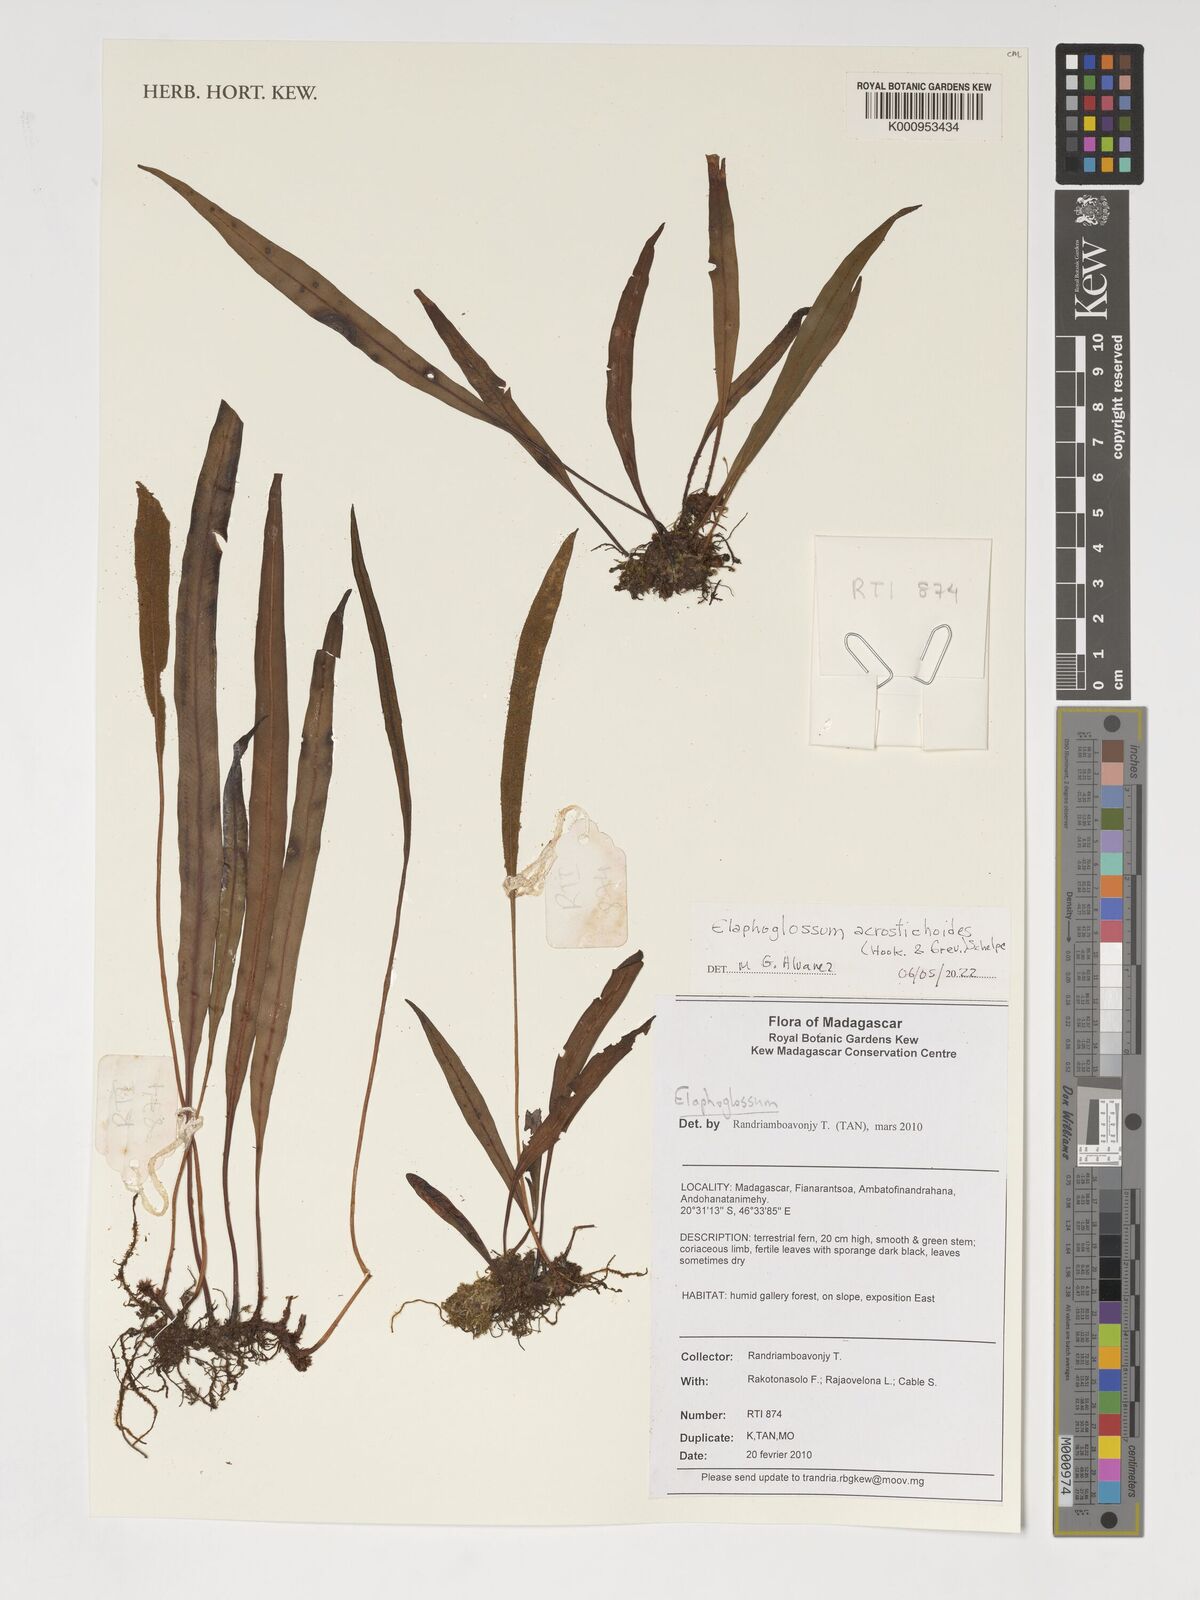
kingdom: Plantae
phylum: Tracheophyta
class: Polypodiopsida
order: Polypodiales
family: Dryopteridaceae
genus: Elaphoglossum
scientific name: Elaphoglossum acrostichoides
